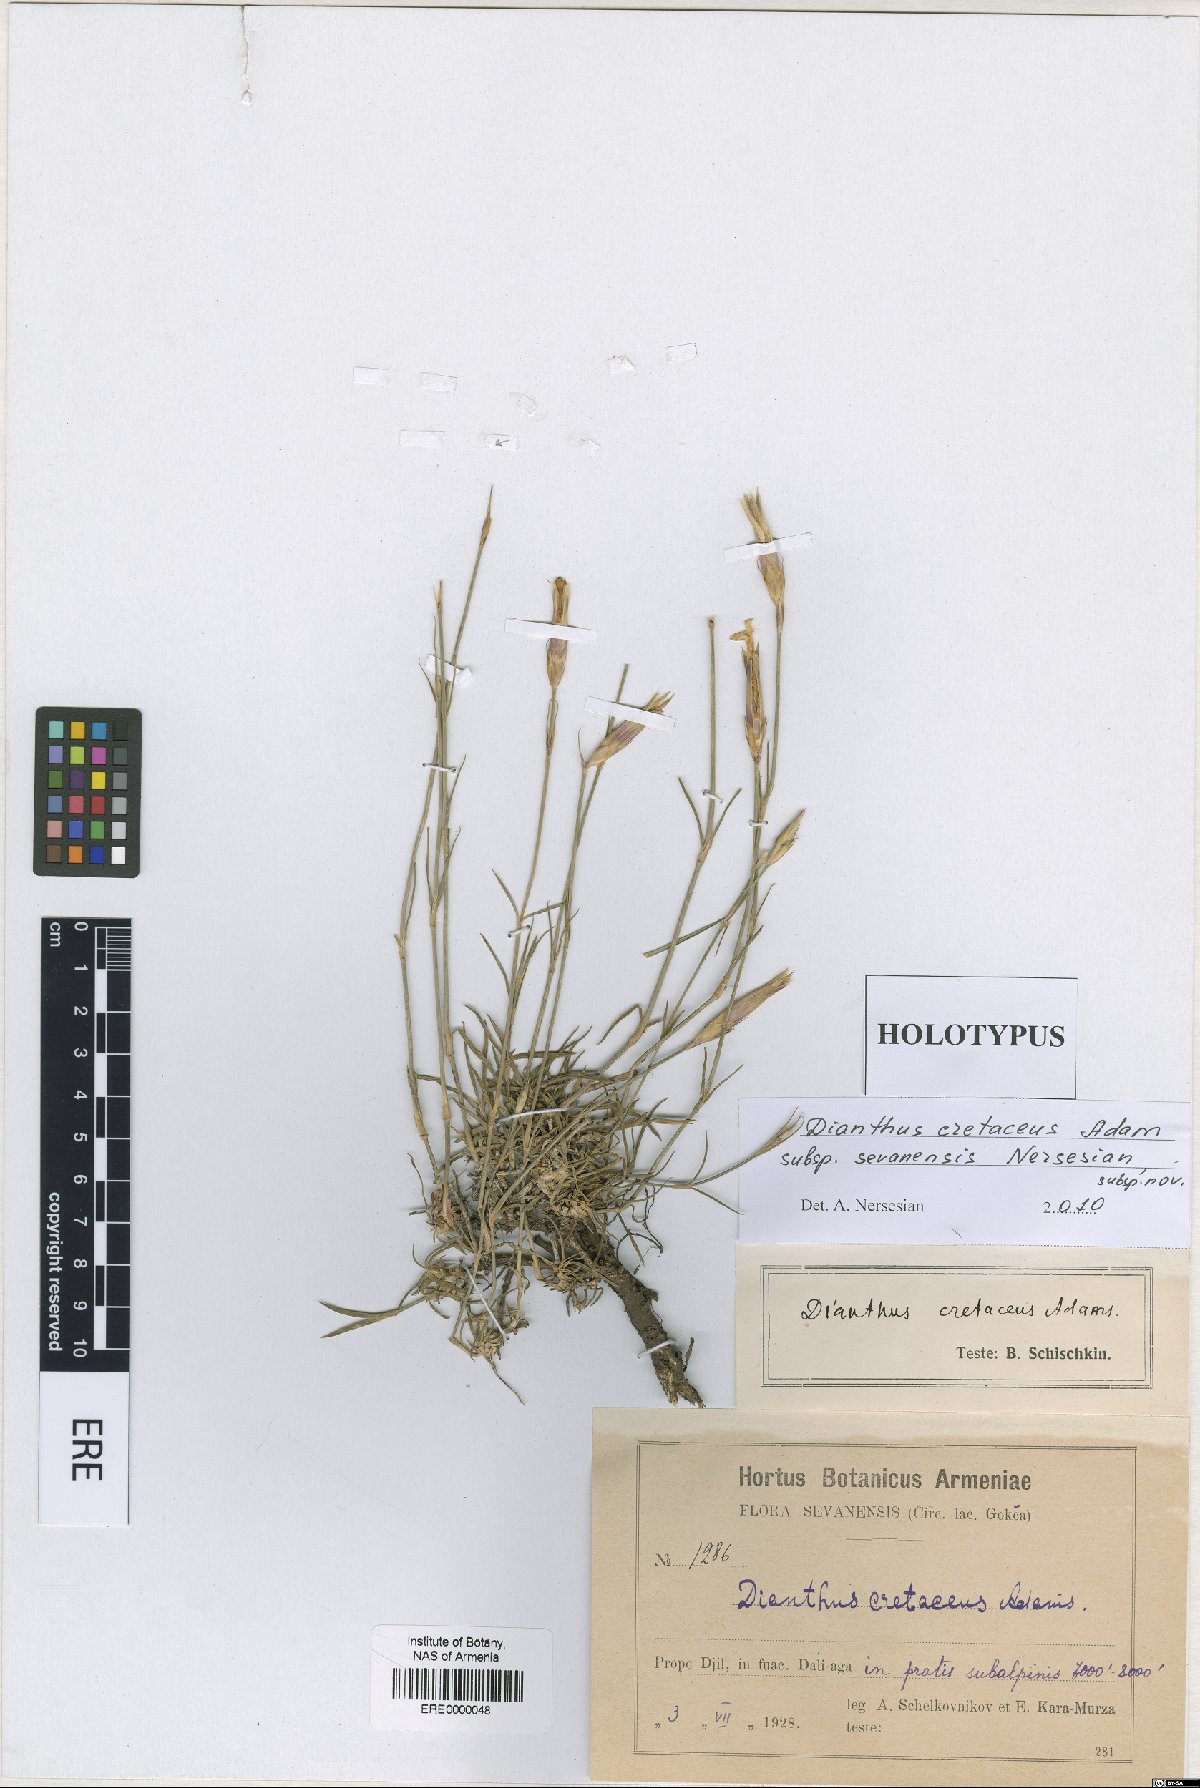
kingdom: Plantae
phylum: Tracheophyta
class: Magnoliopsida
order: Caryophyllales
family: Caryophyllaceae
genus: Dianthus
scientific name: Dianthus cretaceus
